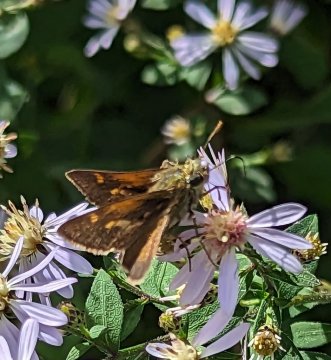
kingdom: Animalia
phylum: Arthropoda
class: Insecta
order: Lepidoptera
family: Hesperiidae
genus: Polites
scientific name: Polites themistocles
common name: Tawny-edged Skipper
